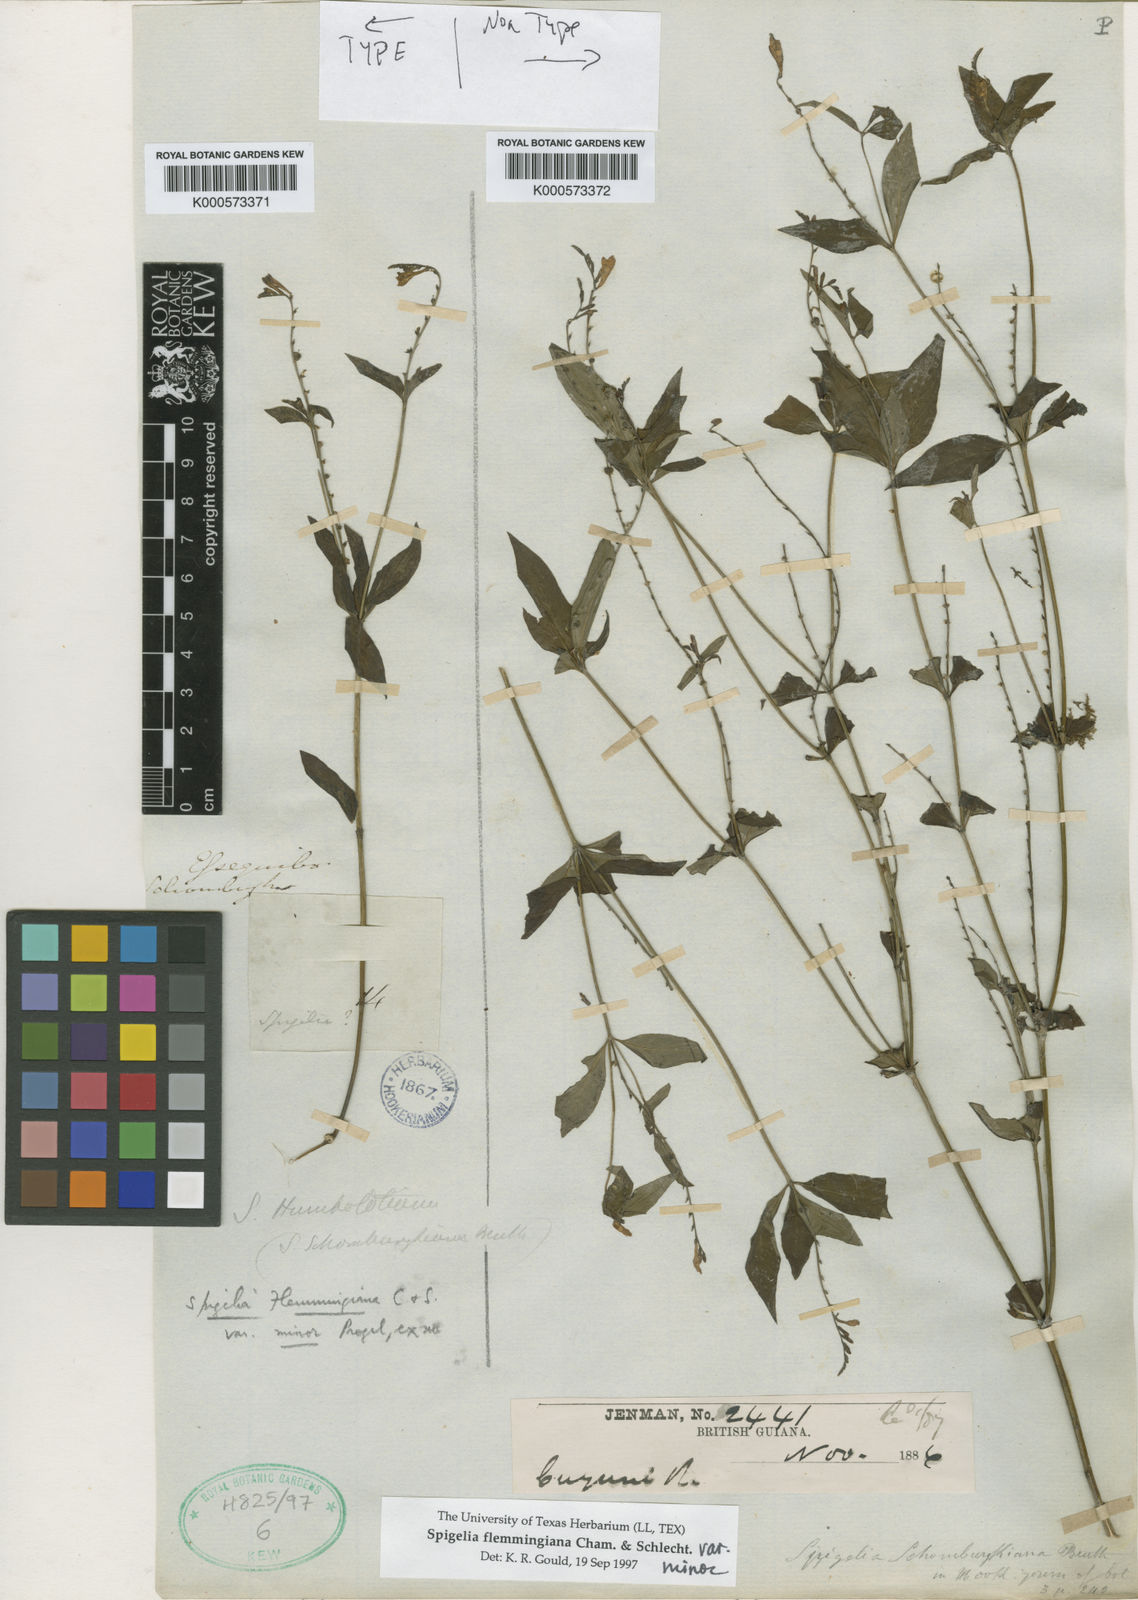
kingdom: Plantae
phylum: Tracheophyta
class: Magnoliopsida
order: Gentianales
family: Loganiaceae
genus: Spigelia
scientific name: Spigelia flemmingiana
